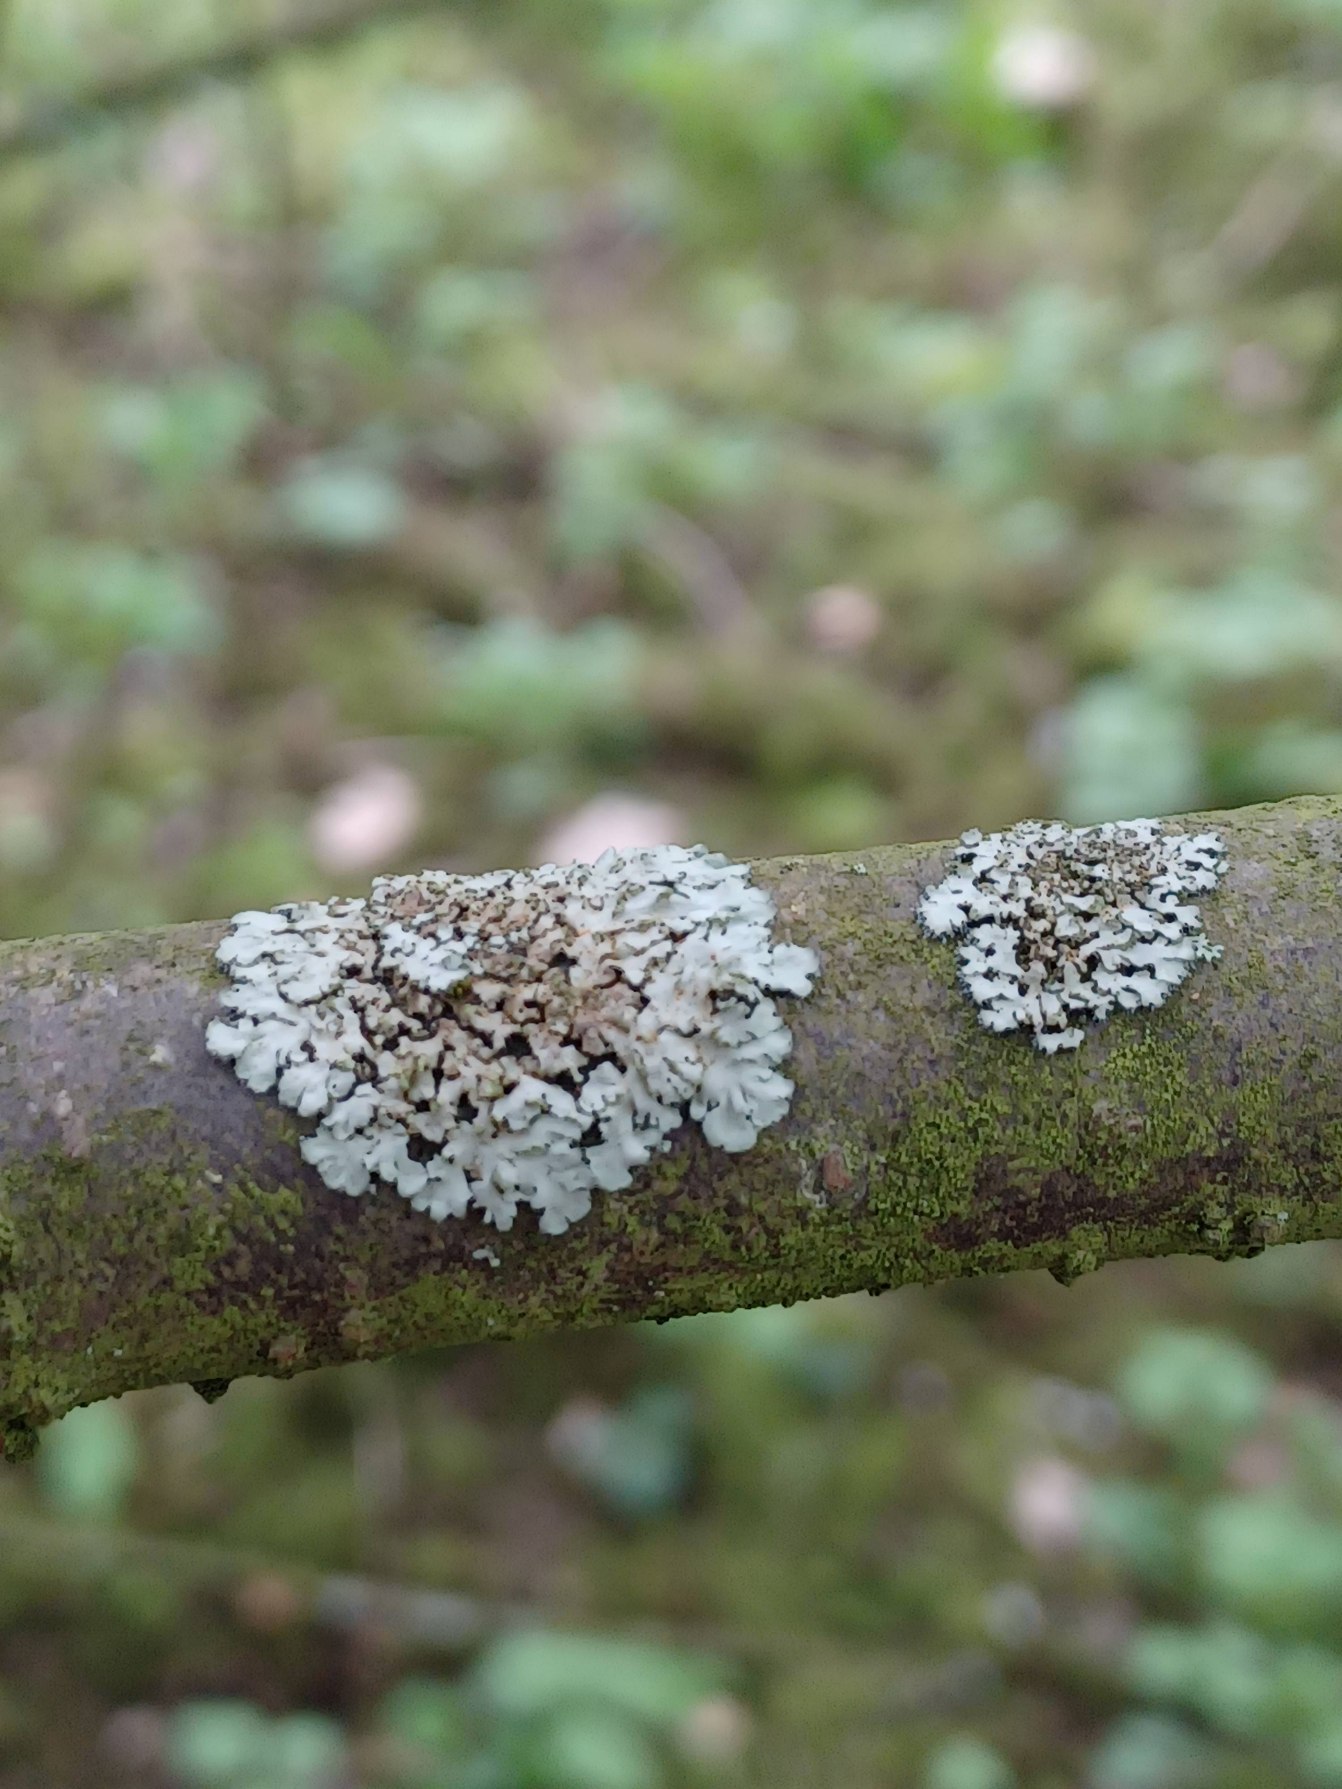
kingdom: Fungi
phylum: Ascomycota
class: Lecanoromycetes
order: Caliciales
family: Physciaceae
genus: Phaeophyscia
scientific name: Phaeophyscia orbicularis
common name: Grågrøn rosetlav
